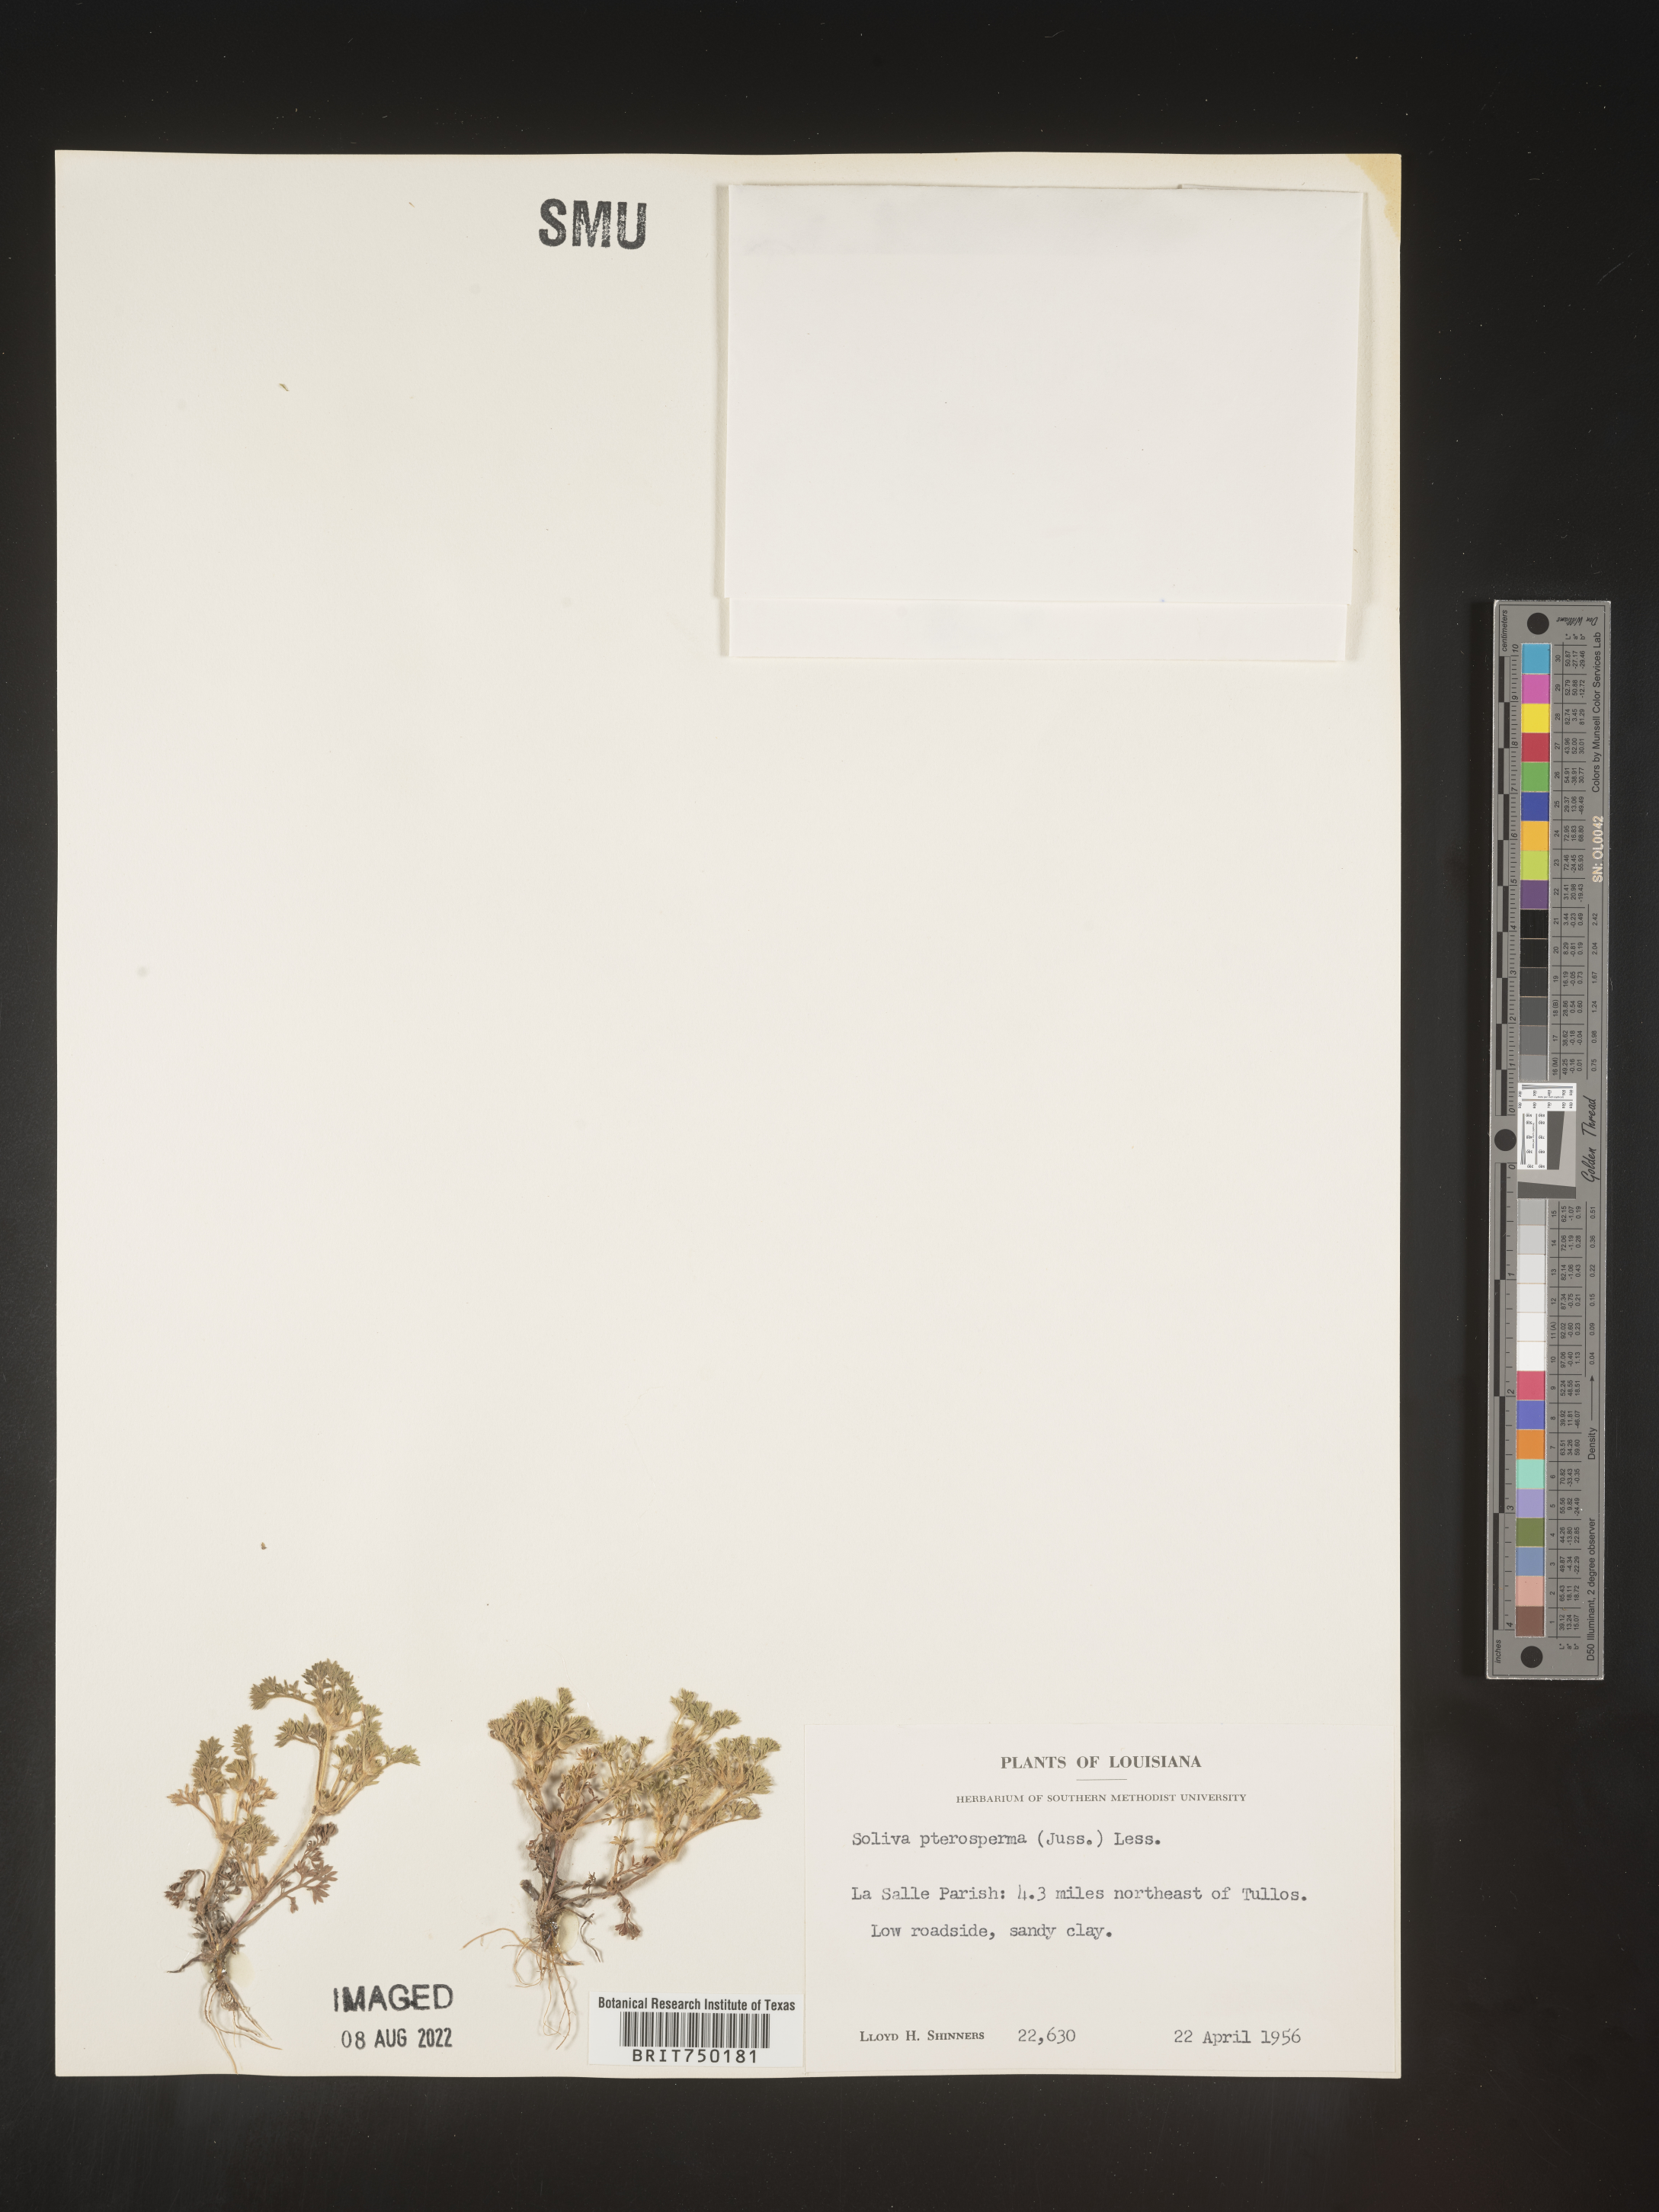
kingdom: Plantae
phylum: Tracheophyta
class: Magnoliopsida
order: Asterales
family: Asteraceae
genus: Soliva
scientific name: Soliva sessilis
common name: Field burrweed
